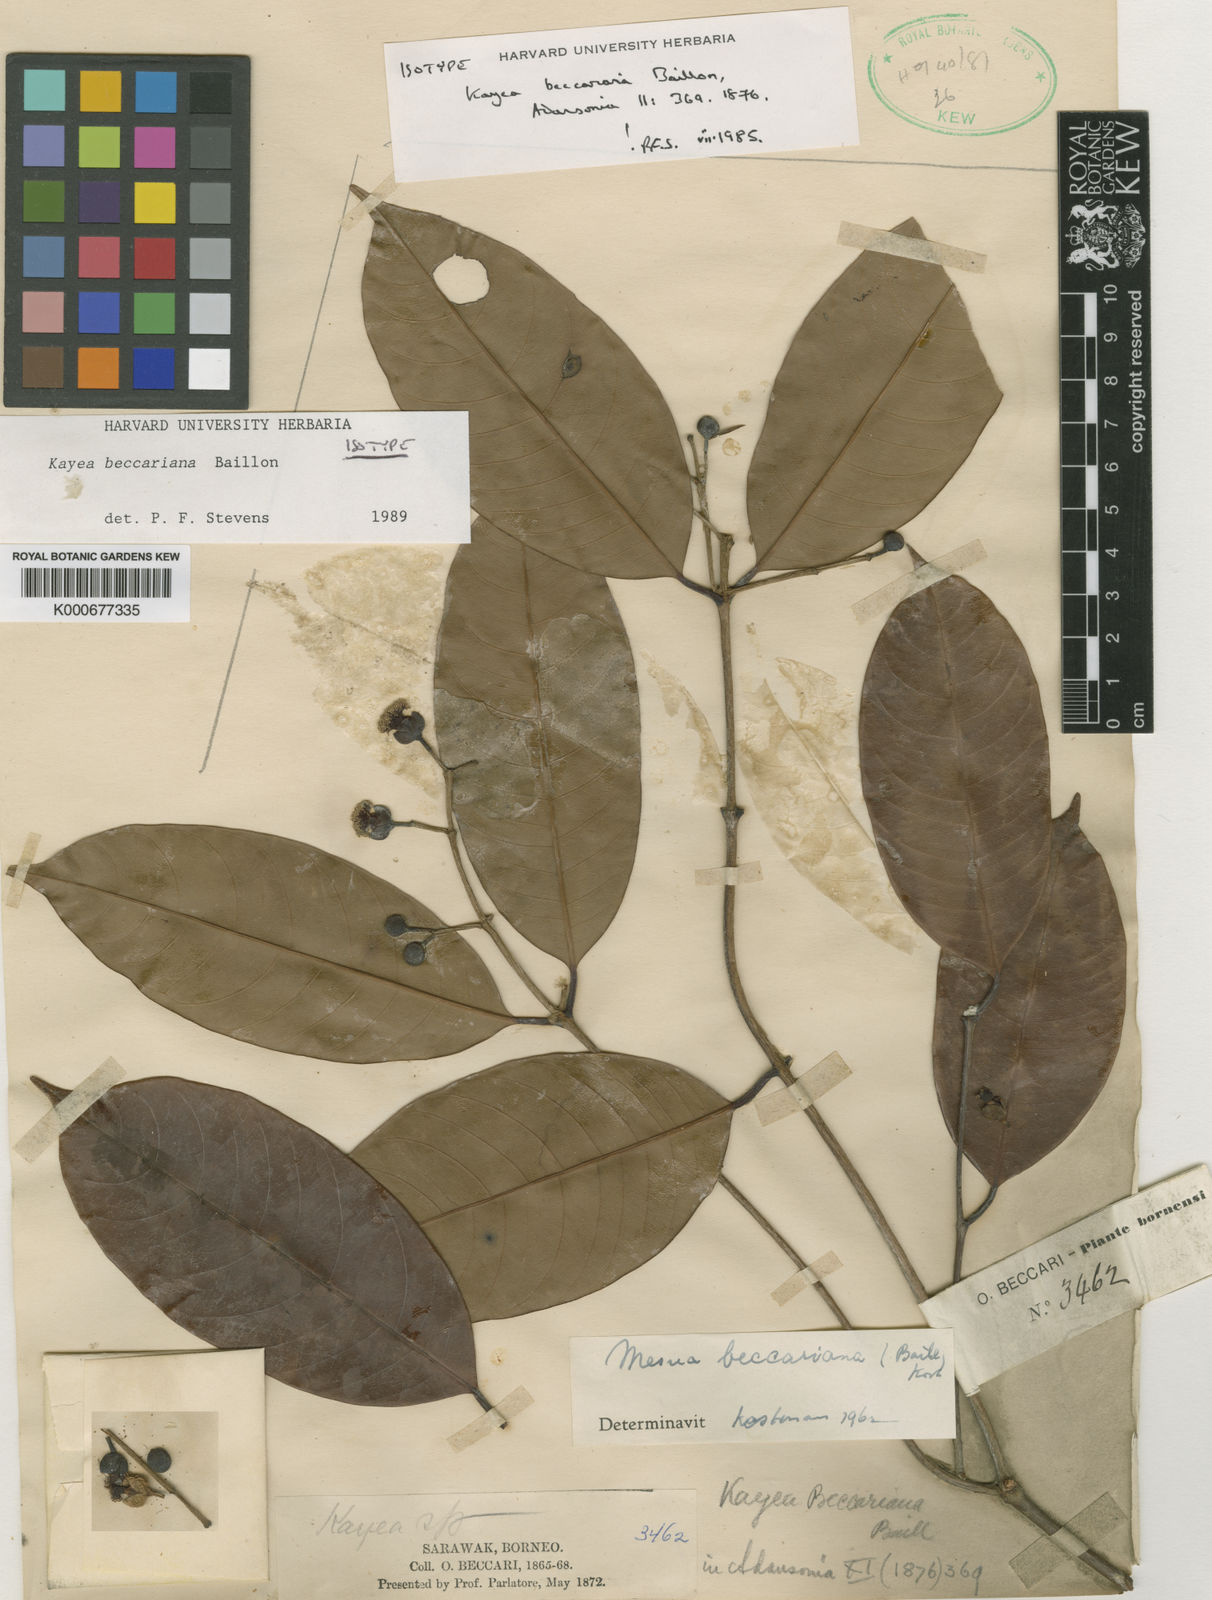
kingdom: Plantae
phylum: Tracheophyta
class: Magnoliopsida
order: Malpighiales
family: Calophyllaceae
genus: Kayea
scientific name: Kayea beccariana
